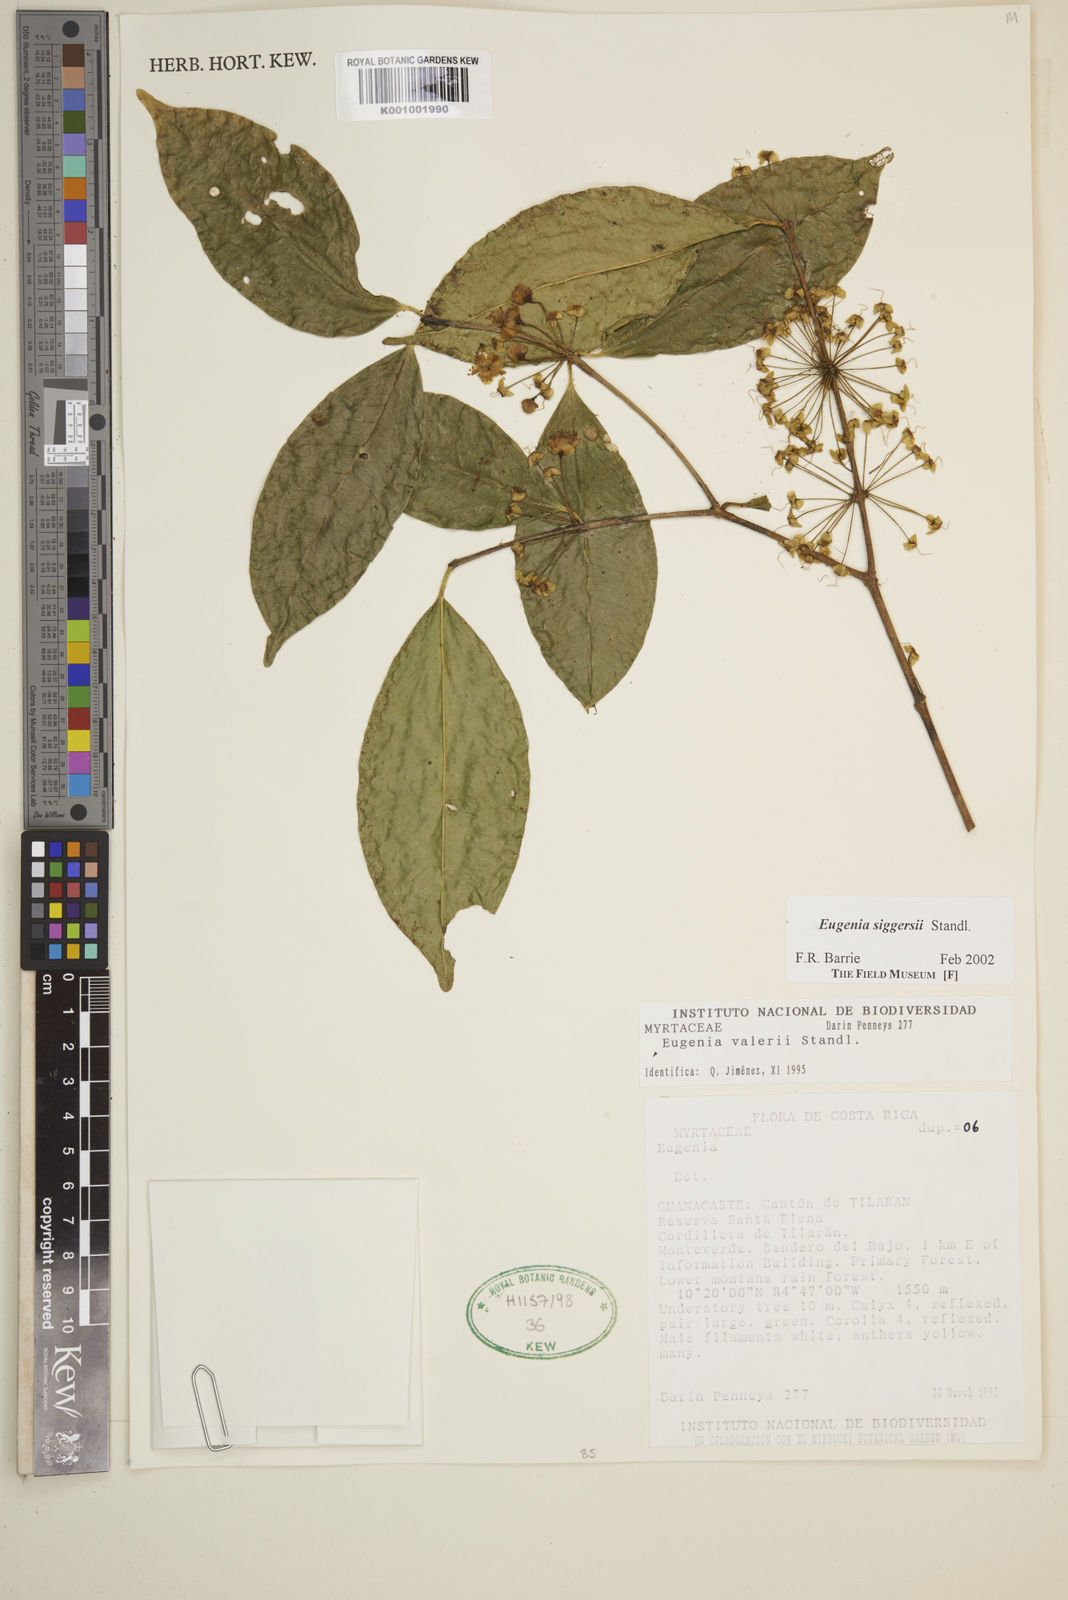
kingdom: Plantae
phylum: Tracheophyta
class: Magnoliopsida
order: Myrtales
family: Myrtaceae
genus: Eugenia
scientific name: Eugenia siggersii
